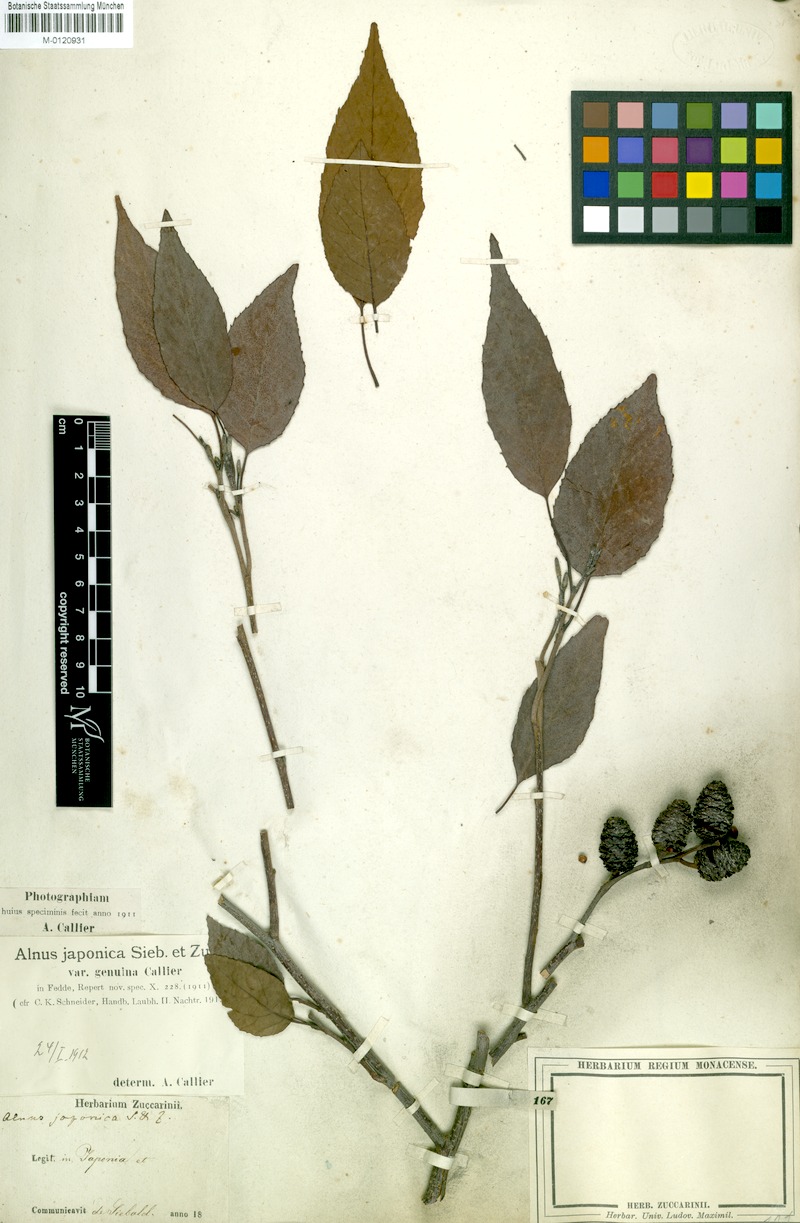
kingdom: Plantae
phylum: Tracheophyta
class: Magnoliopsida
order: Fagales
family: Betulaceae
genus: Alnus
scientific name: Alnus serrulatoides
